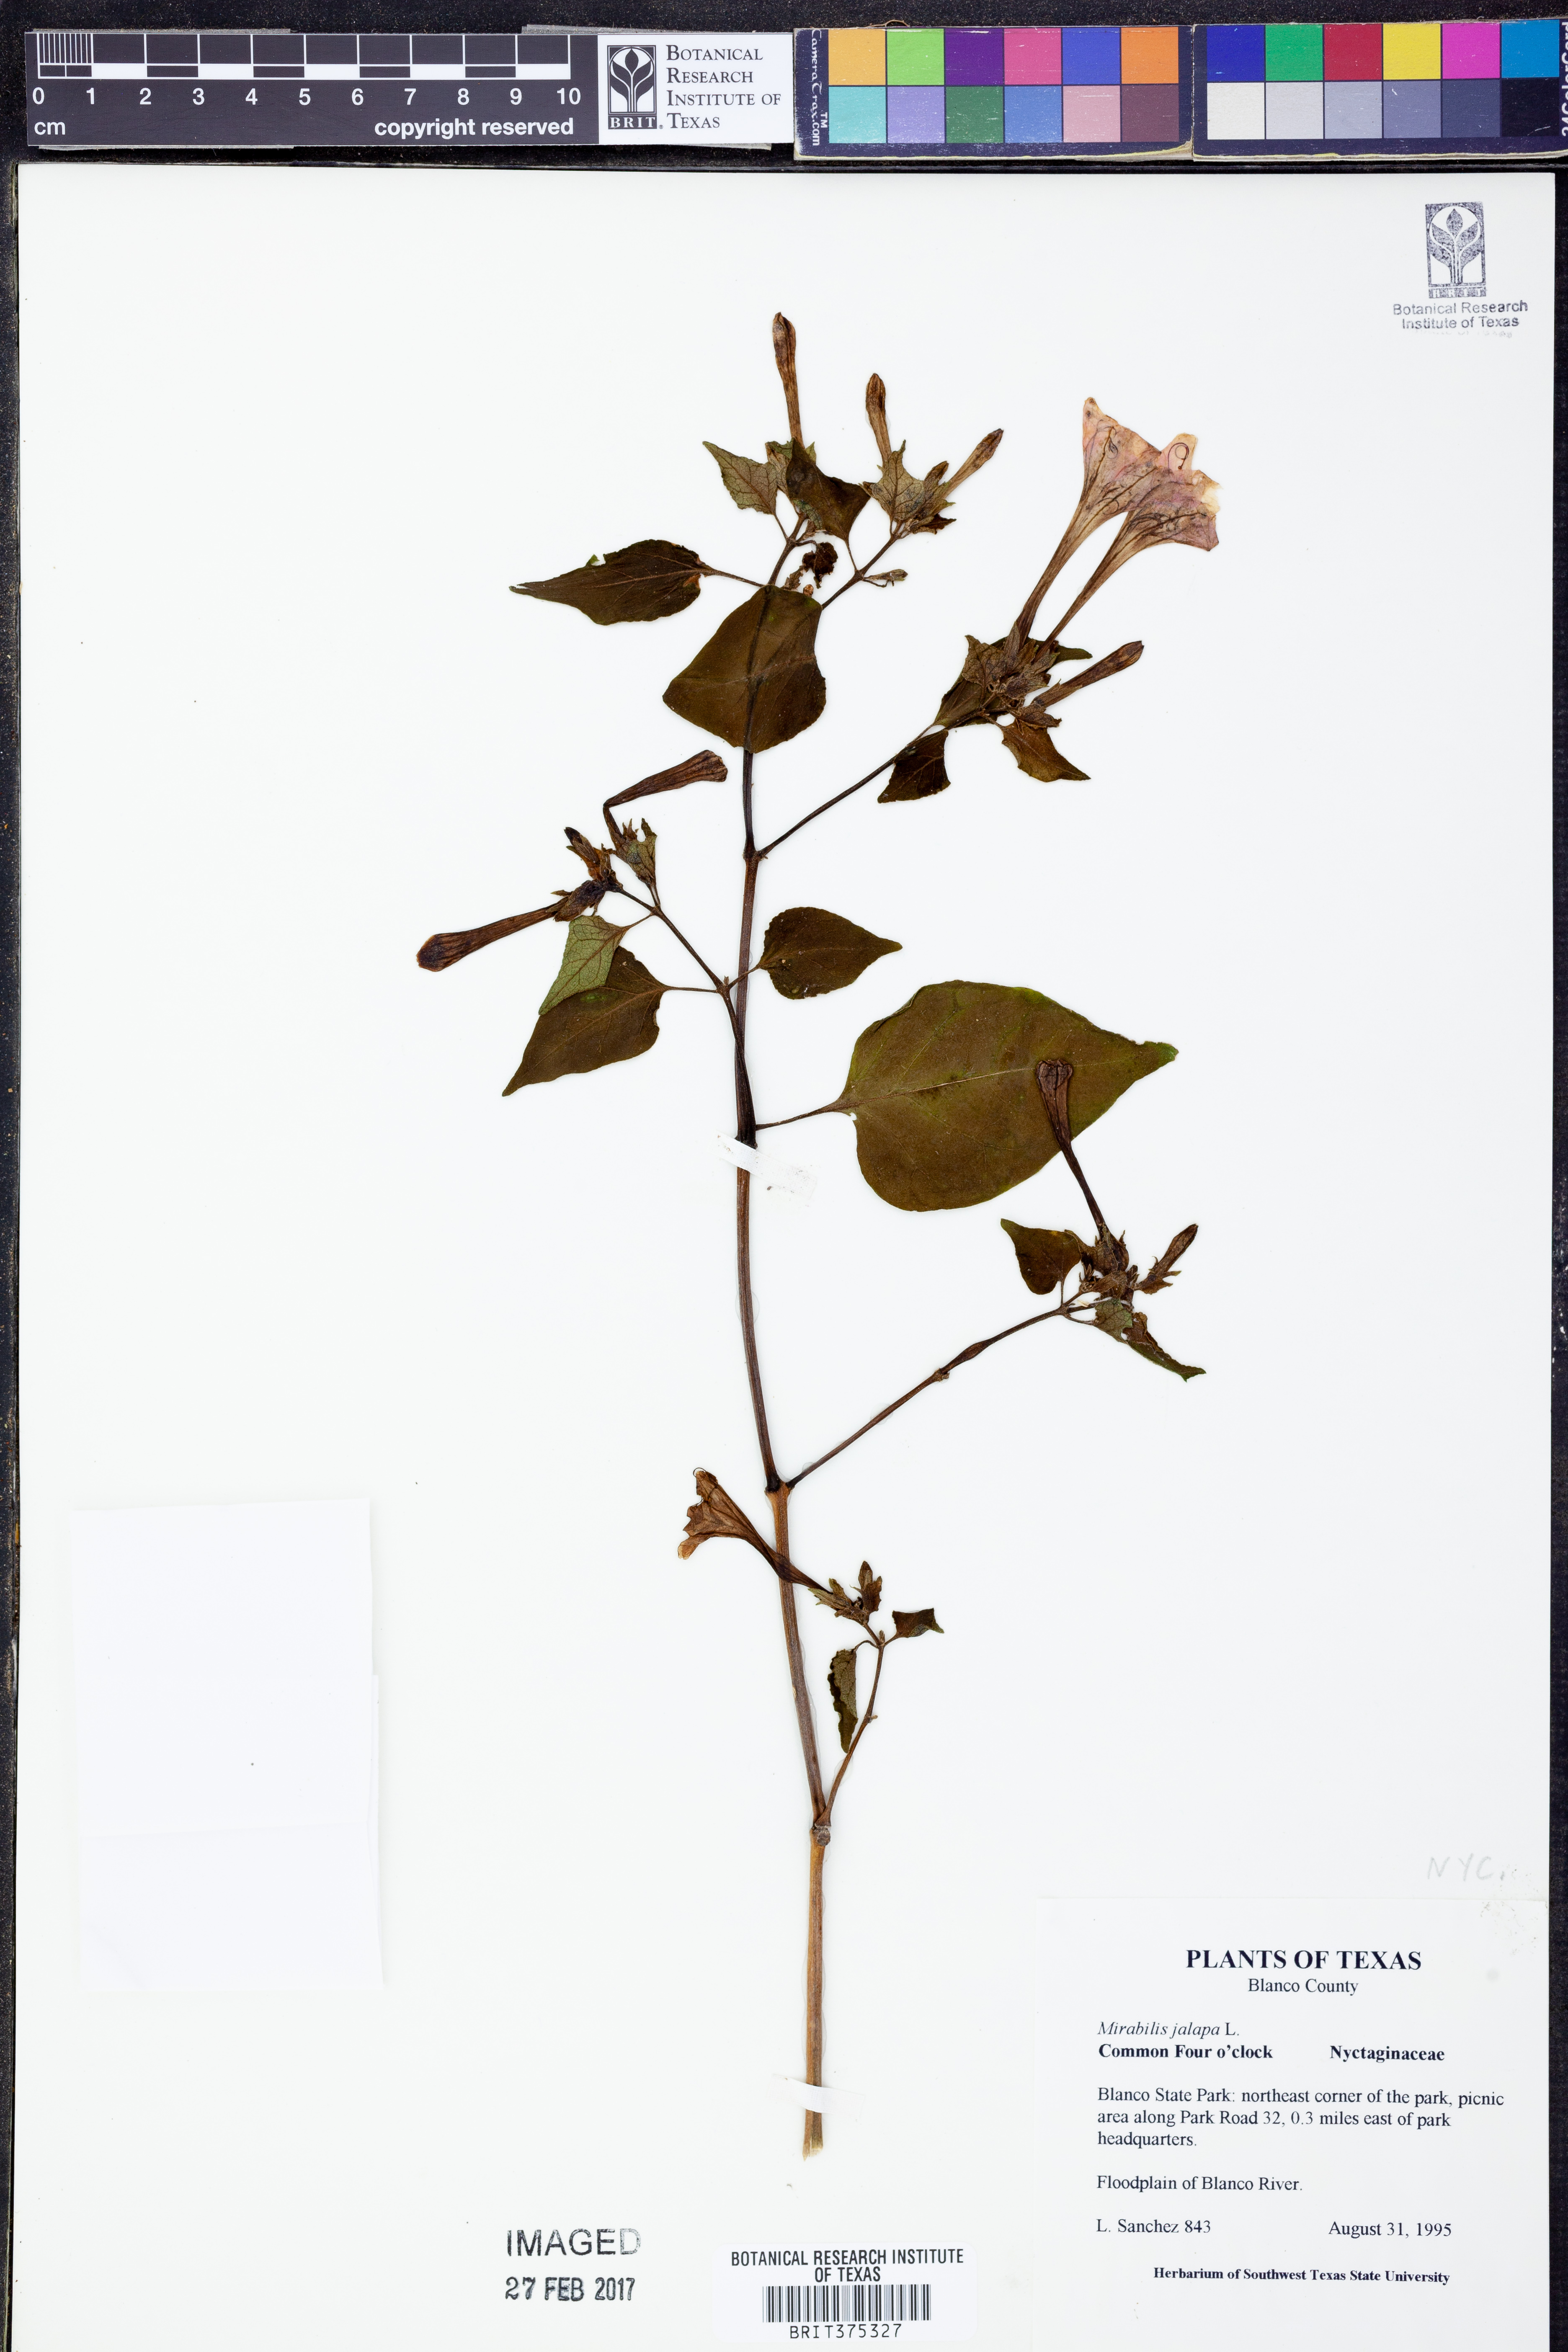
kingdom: Plantae
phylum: Tracheophyta
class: Magnoliopsida
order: Caryophyllales
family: Nyctaginaceae
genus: Mirabilis
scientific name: Mirabilis jalapa
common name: Marvel-of-peru
